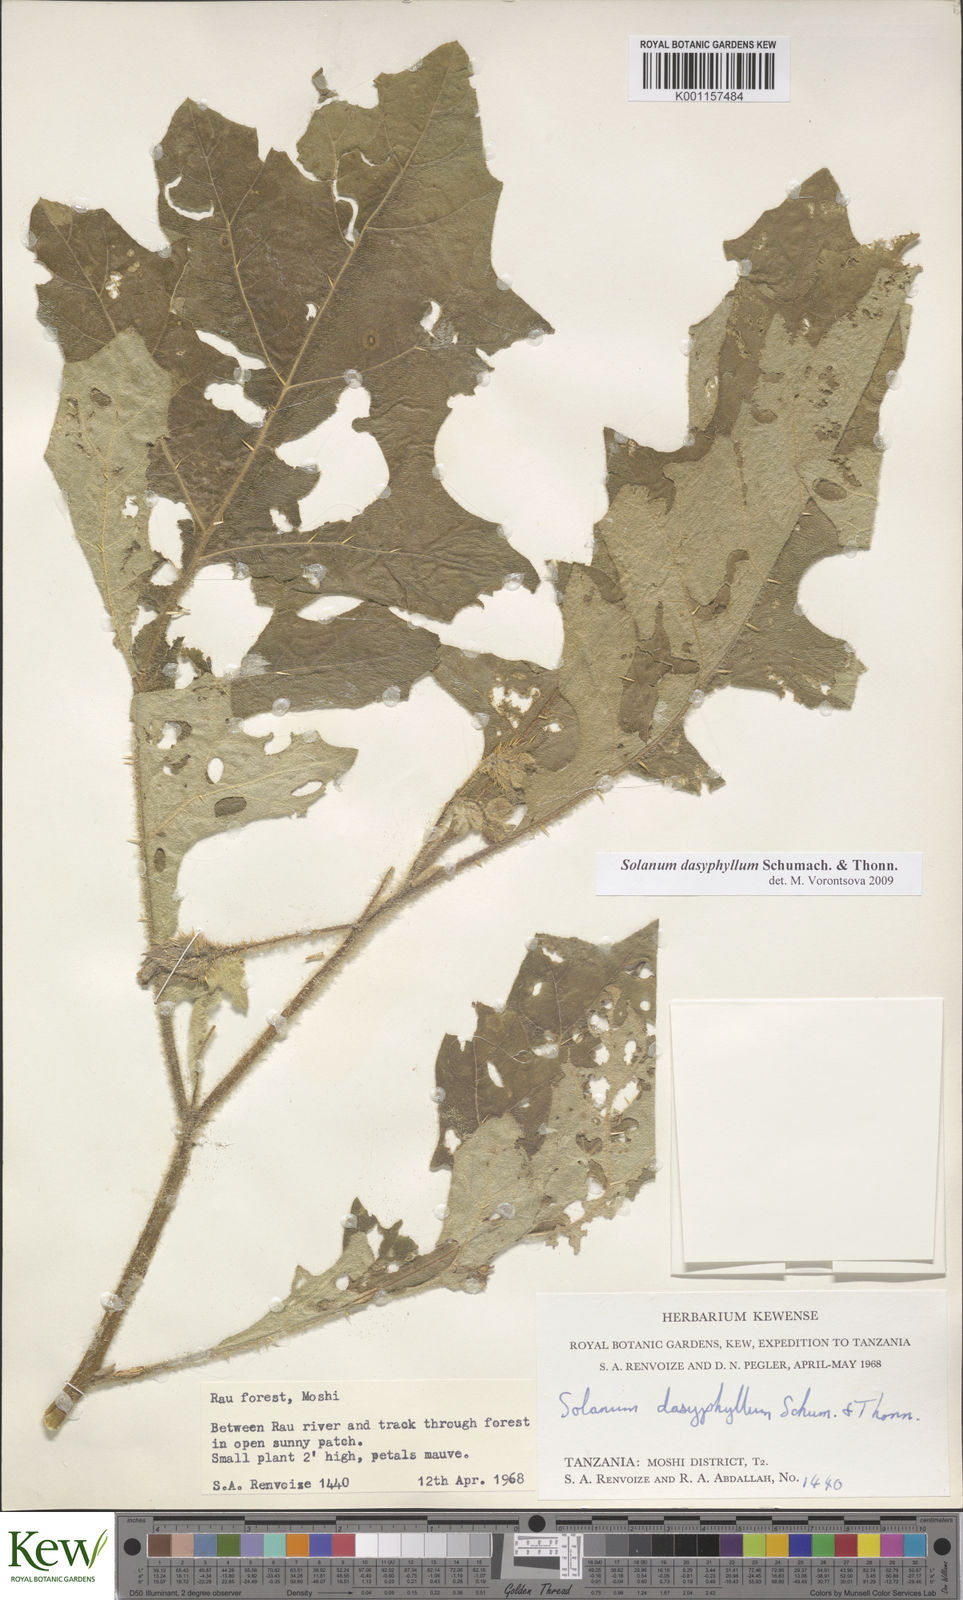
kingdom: Plantae
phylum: Tracheophyta
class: Magnoliopsida
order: Solanales
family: Solanaceae
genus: Solanum
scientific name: Solanum dasyphyllum
